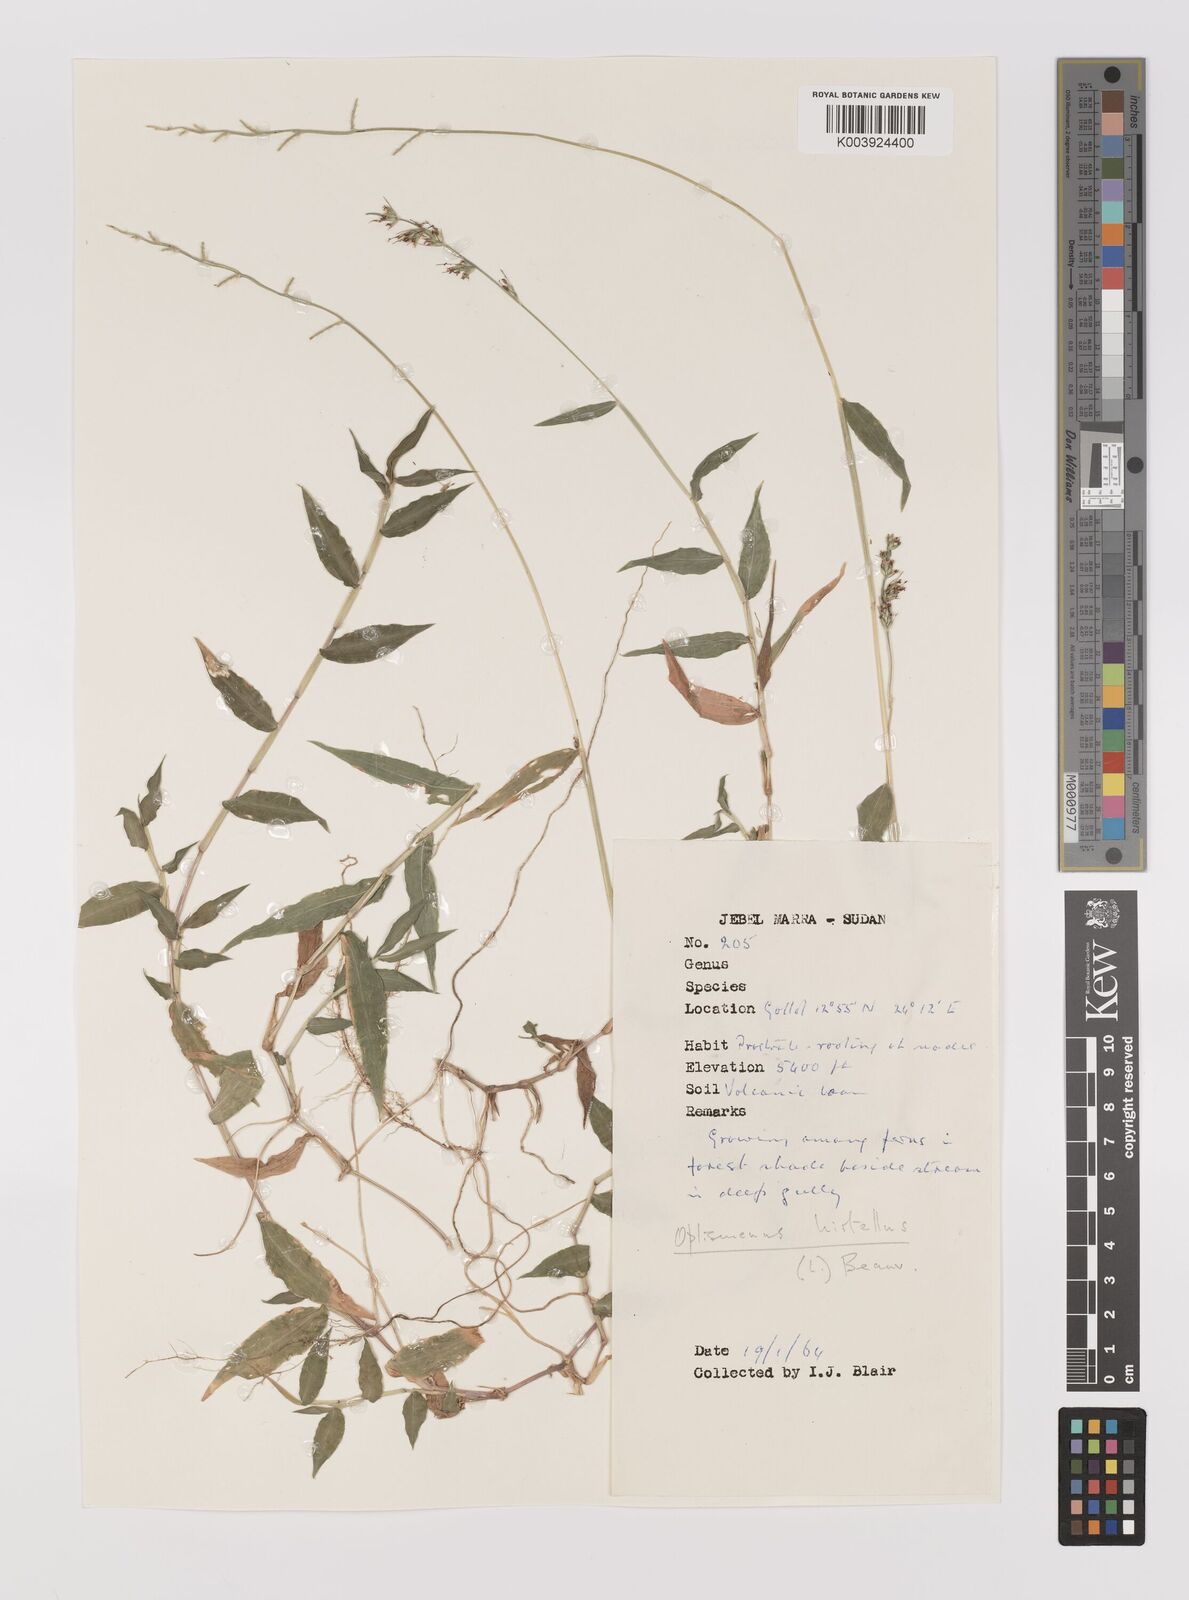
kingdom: Plantae
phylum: Tracheophyta
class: Liliopsida
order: Poales
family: Poaceae
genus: Oplismenus
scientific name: Oplismenus hirtellus
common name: Basketgrass
